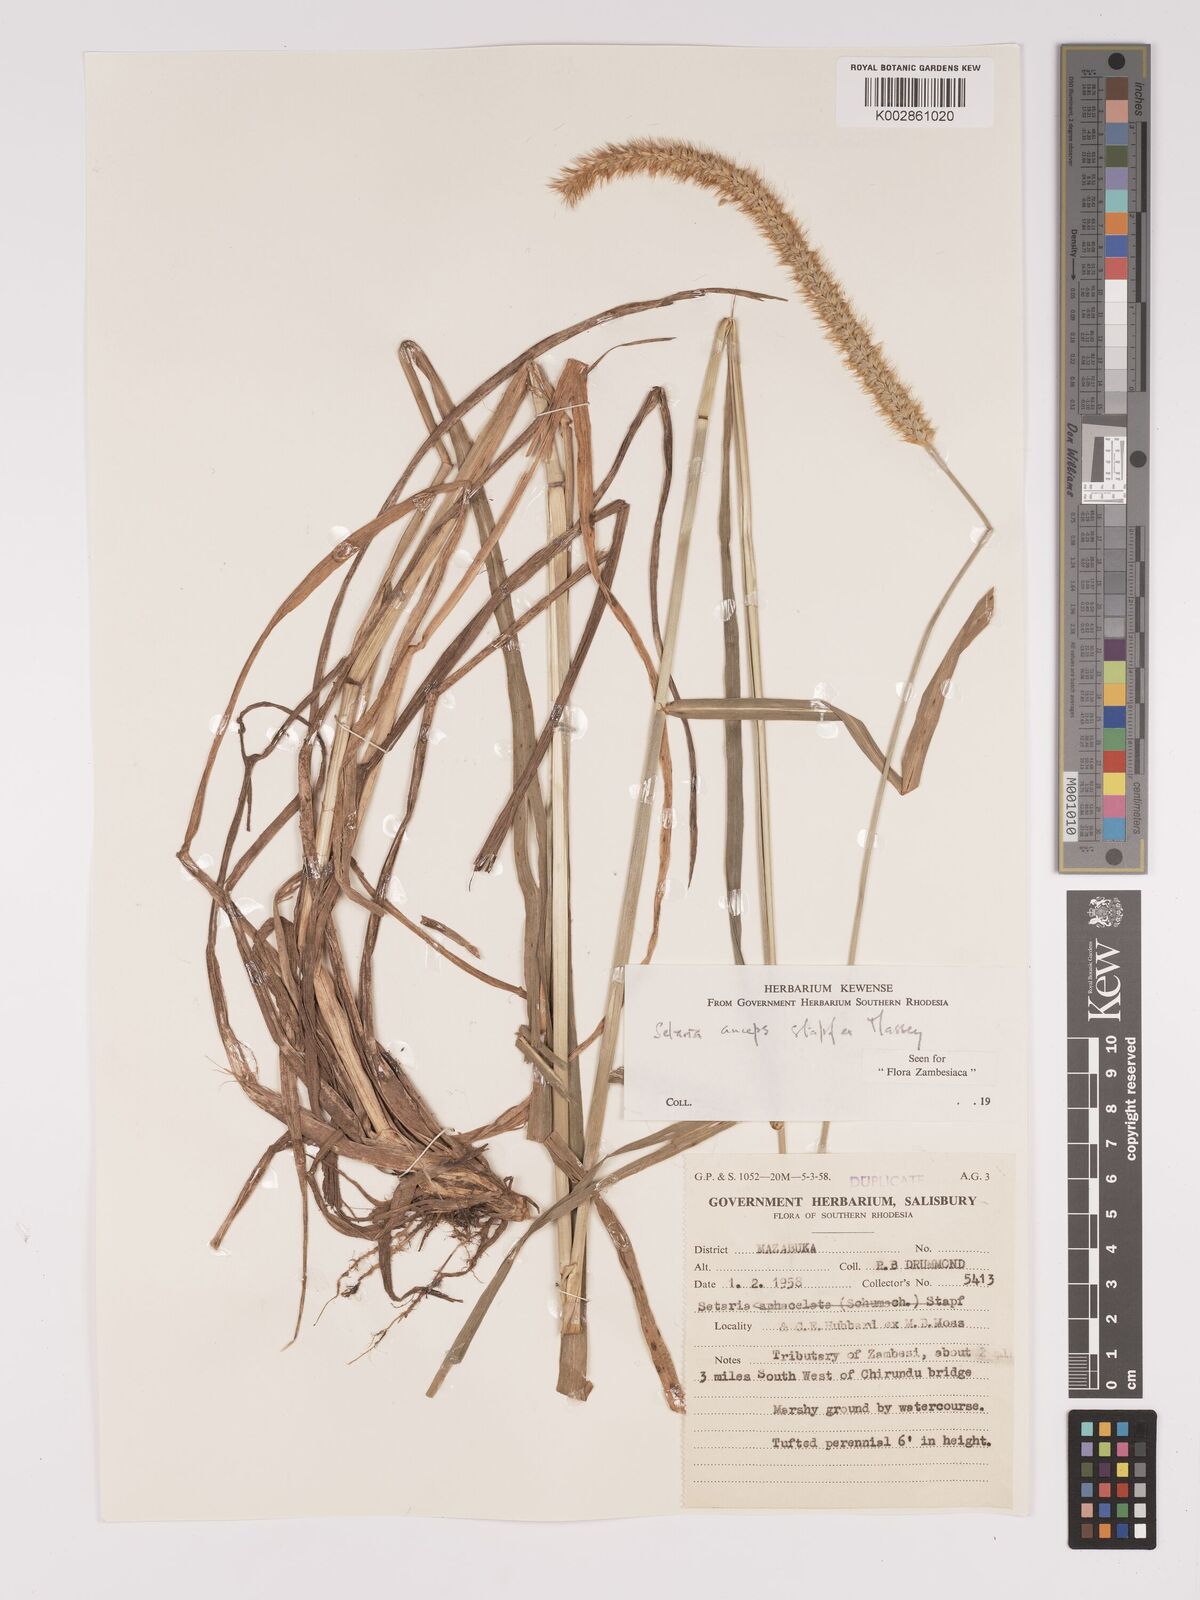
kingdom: Plantae
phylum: Tracheophyta
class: Liliopsida
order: Poales
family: Poaceae
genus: Setaria
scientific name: Setaria sphacelata
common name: African bristlegrass
